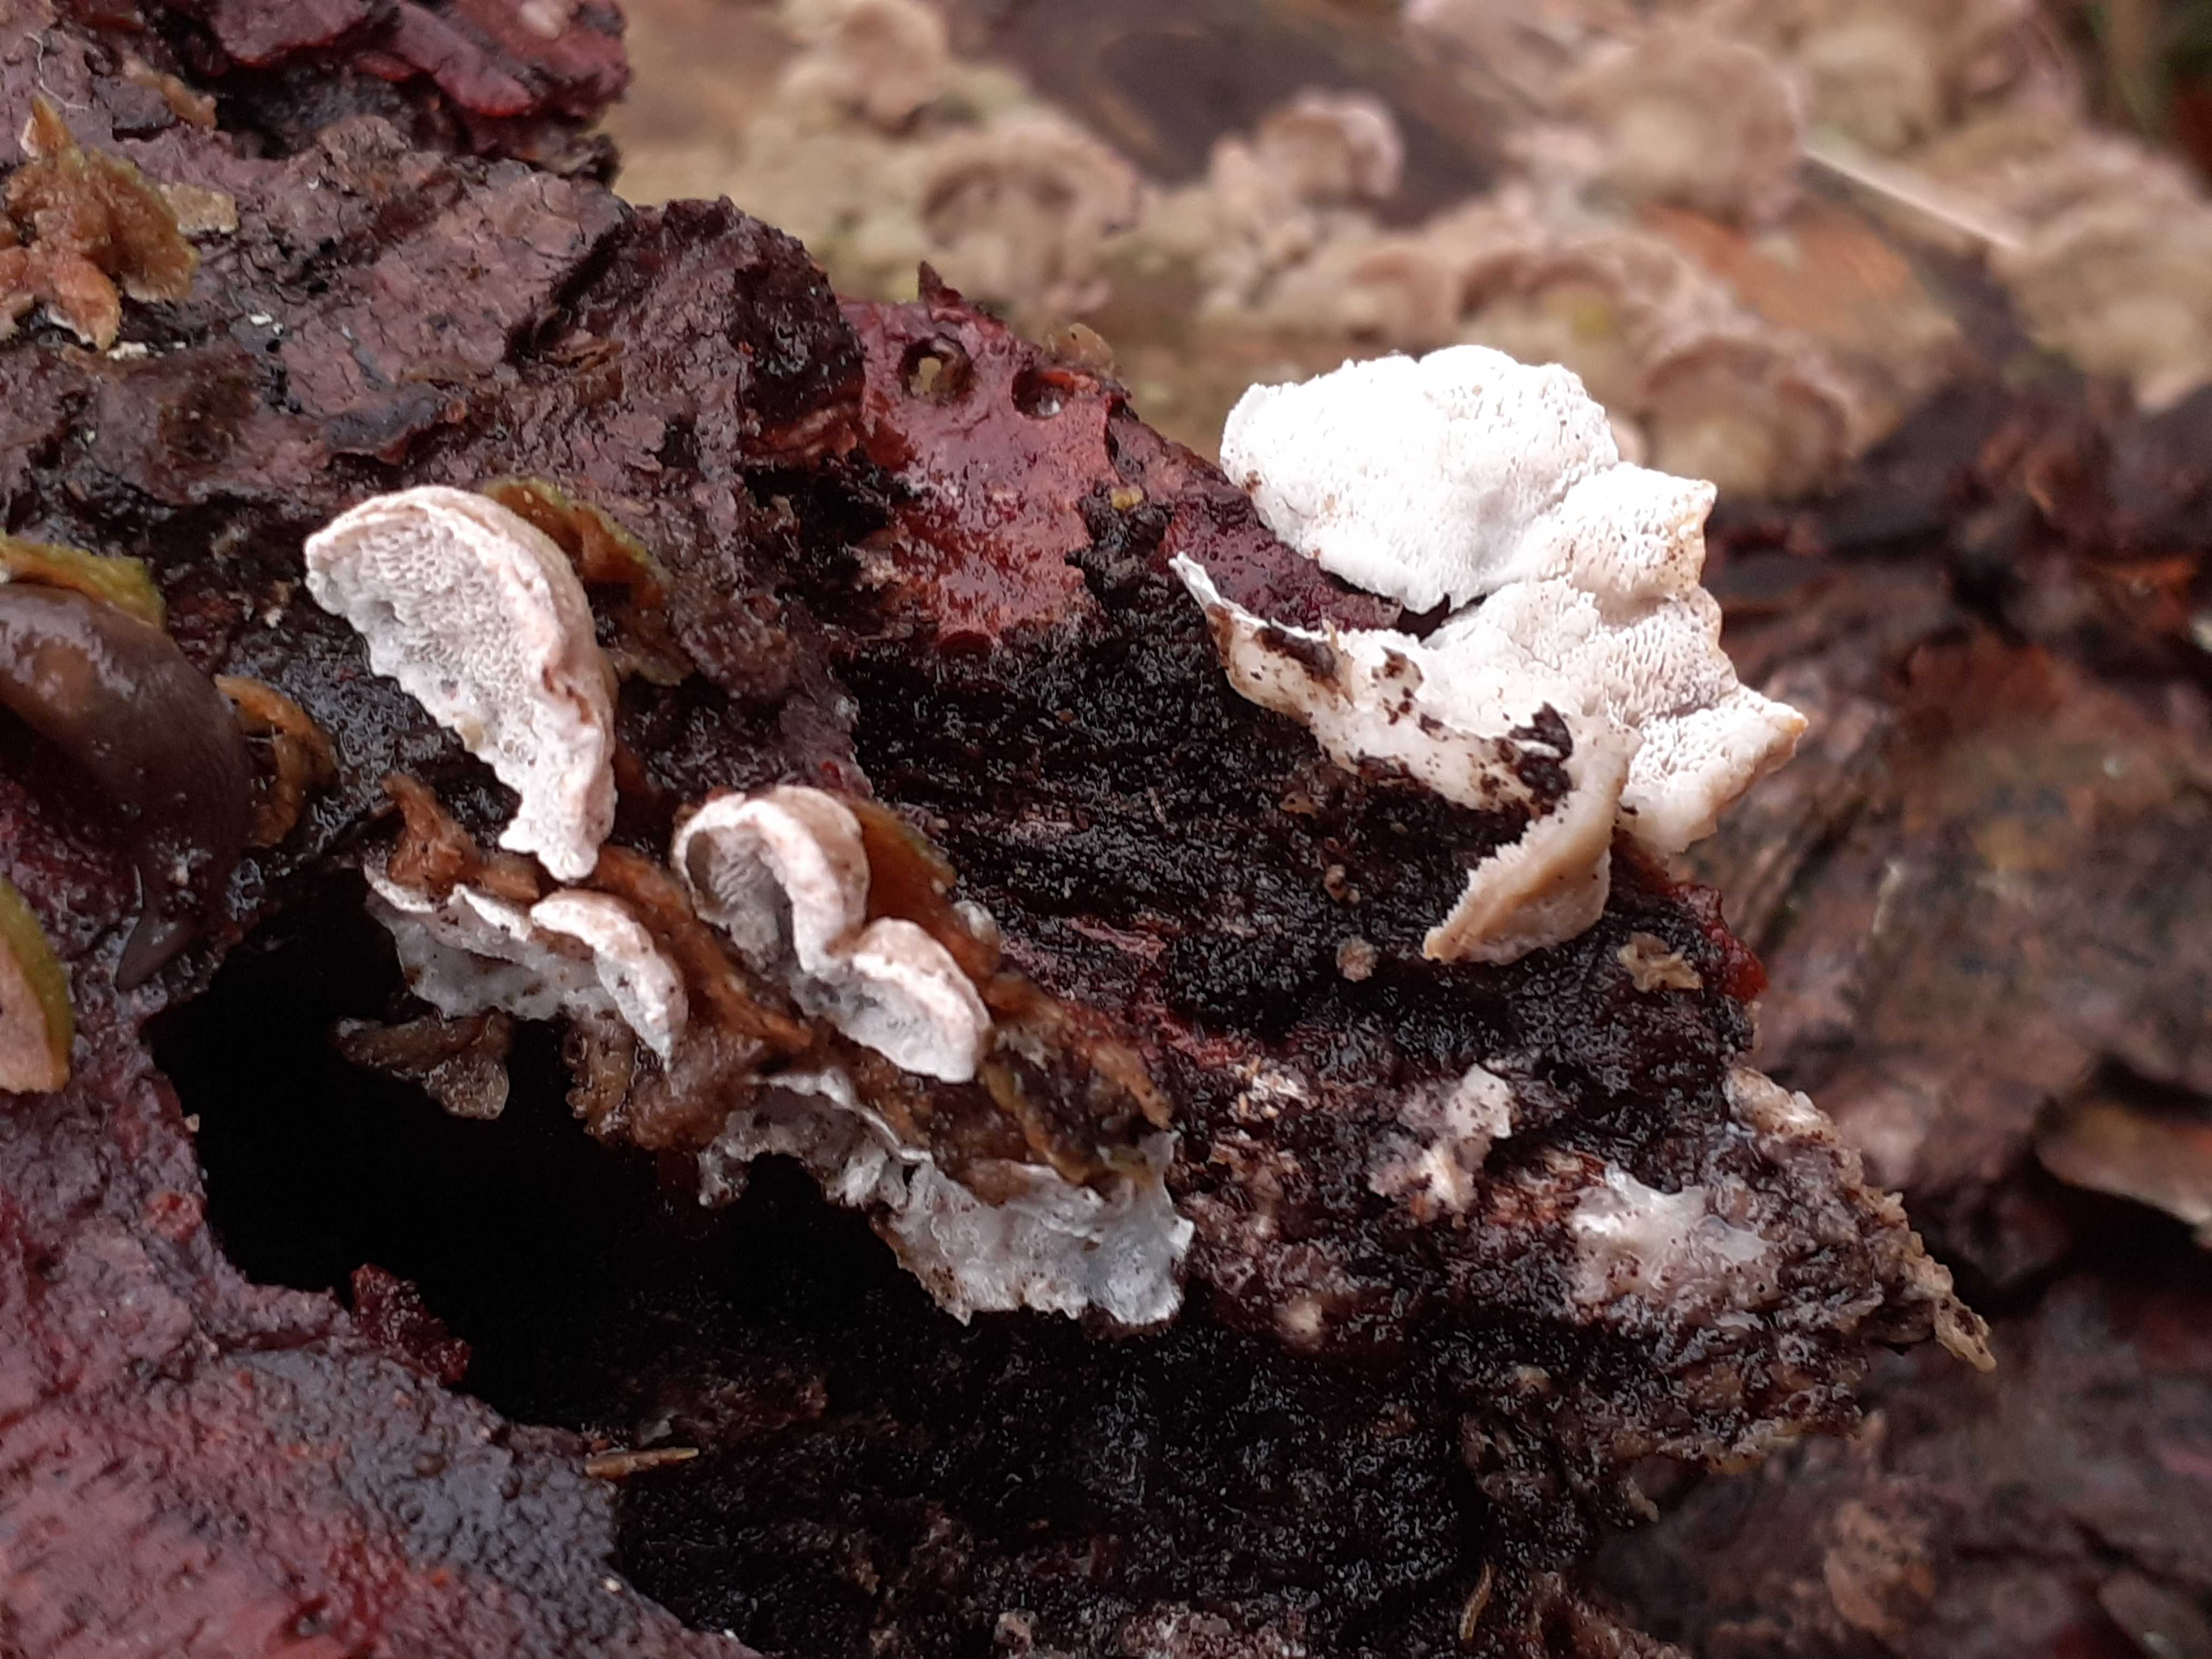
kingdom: Fungi
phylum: Basidiomycota
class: Agaricomycetes
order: Polyporales
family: Incrustoporiaceae
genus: Skeletocutis
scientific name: Skeletocutis carneogrisea
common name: rødgrå krystalporesvamp
